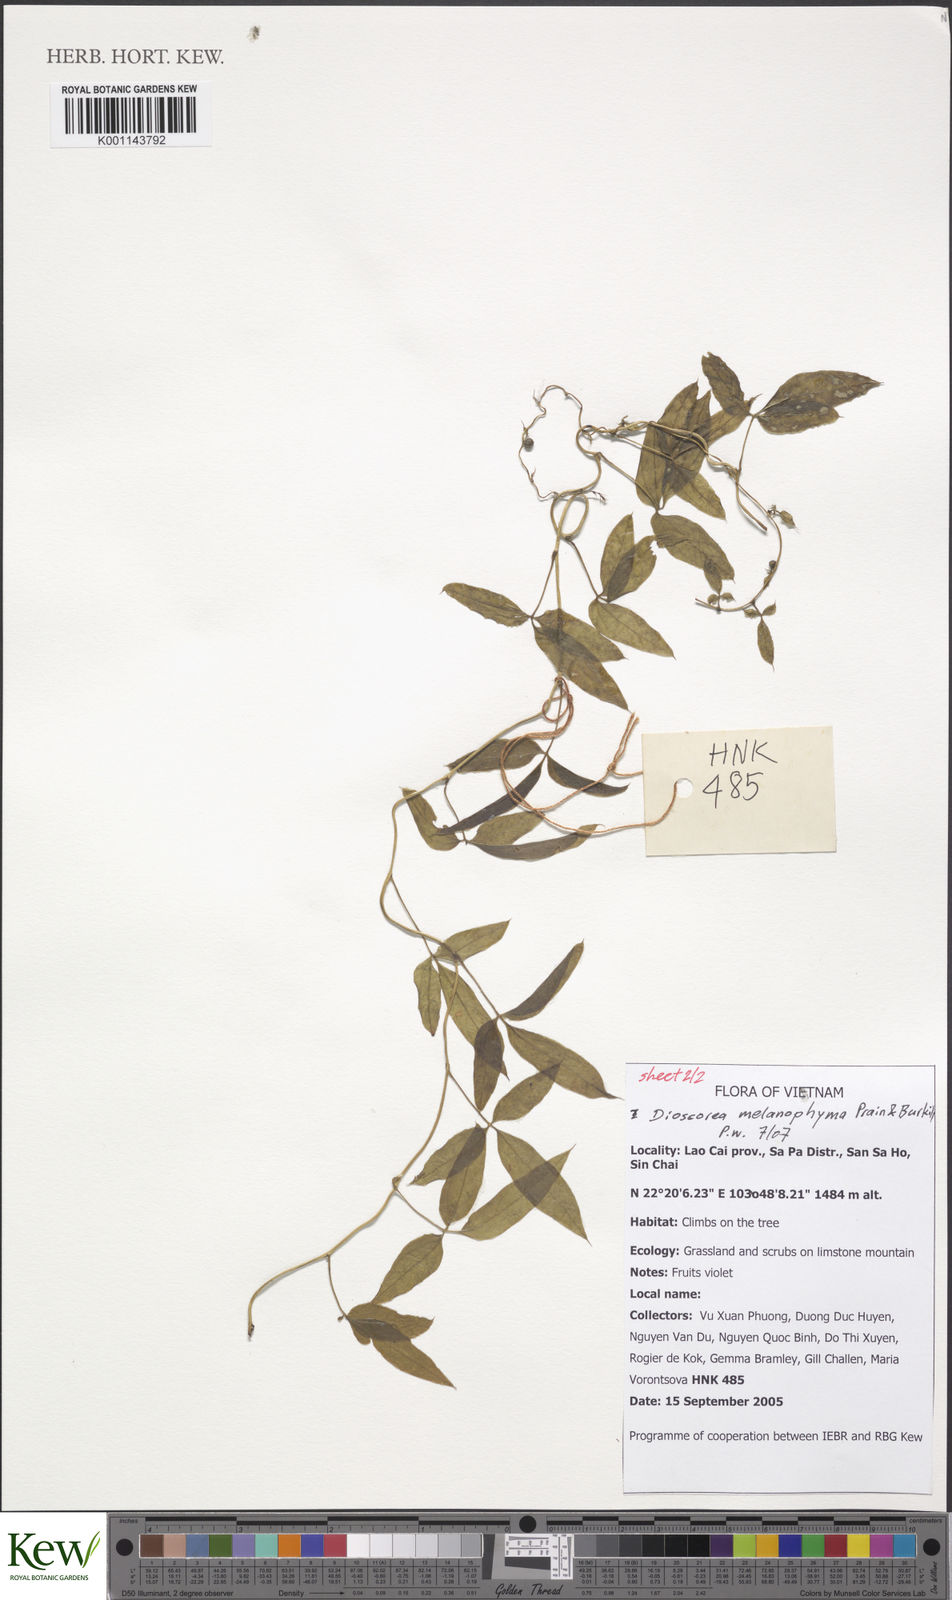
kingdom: Plantae
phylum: Tracheophyta
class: Liliopsida
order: Dioscoreales
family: Dioscoreaceae
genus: Dioscorea
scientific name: Dioscorea melanophyma
